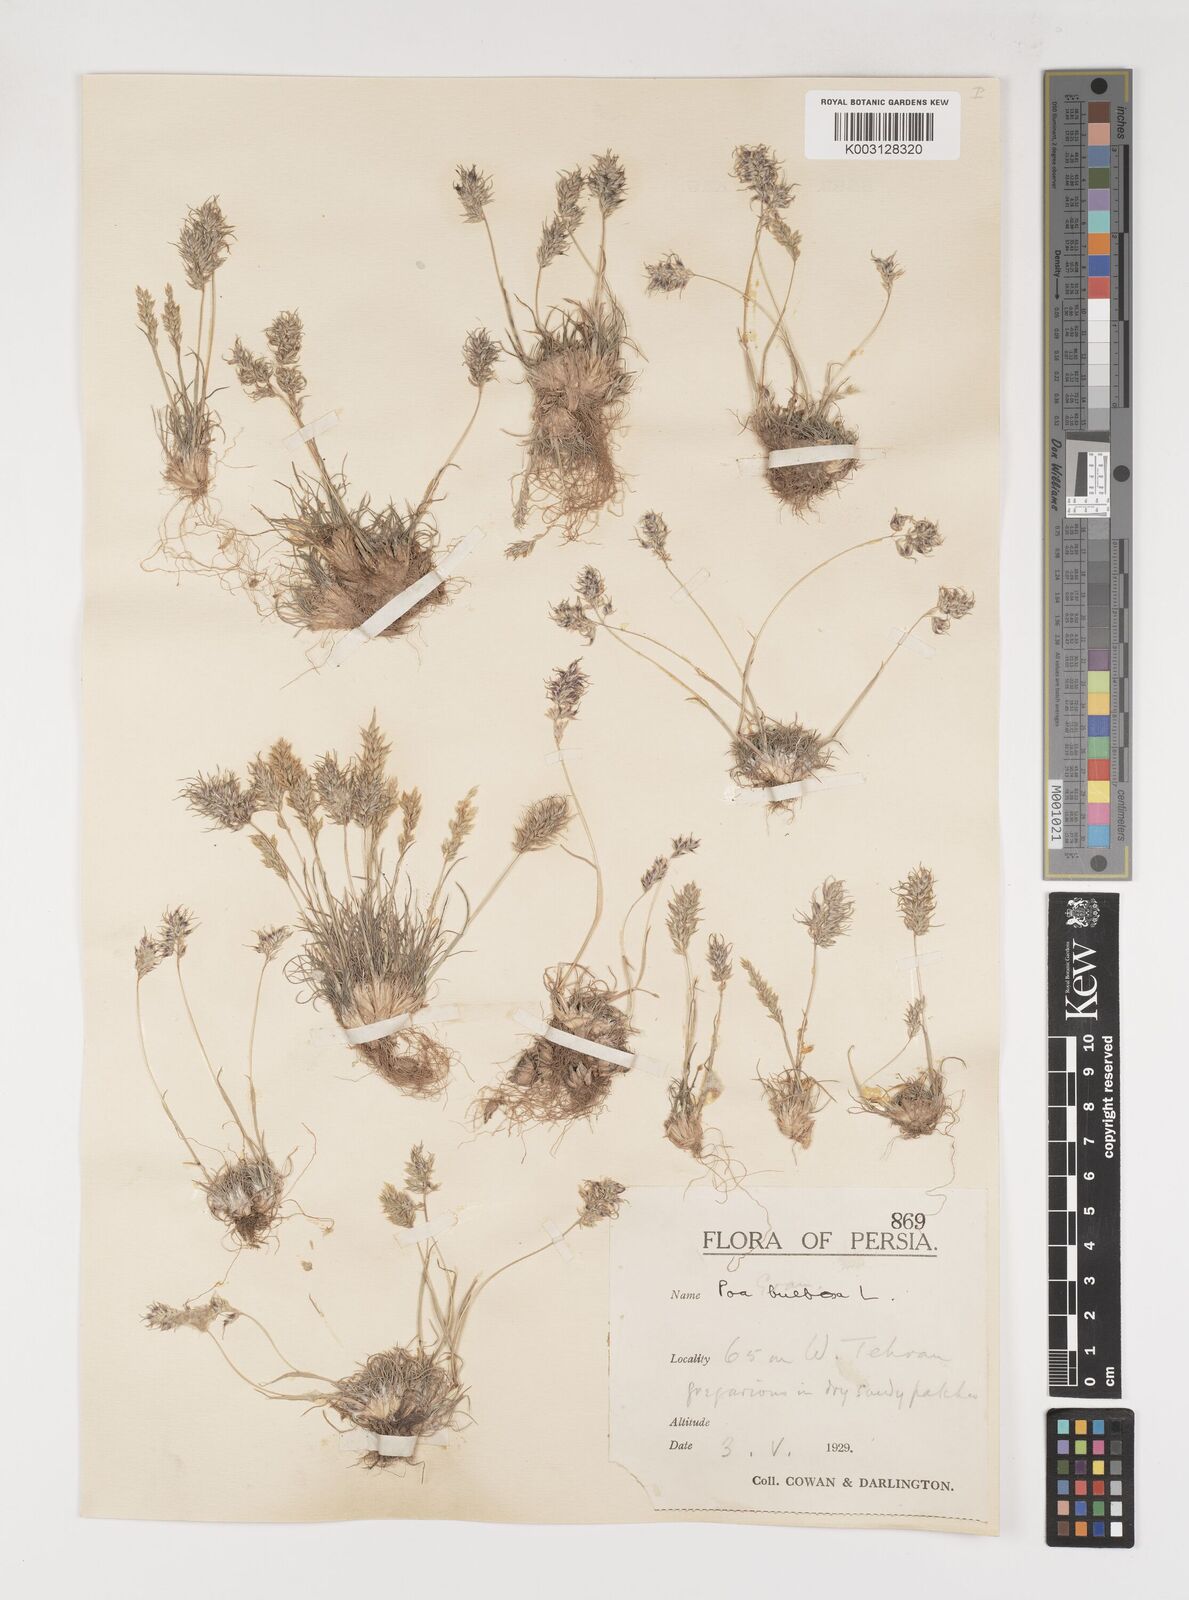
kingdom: Plantae
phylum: Tracheophyta
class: Liliopsida
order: Poales
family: Poaceae
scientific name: Poaceae
